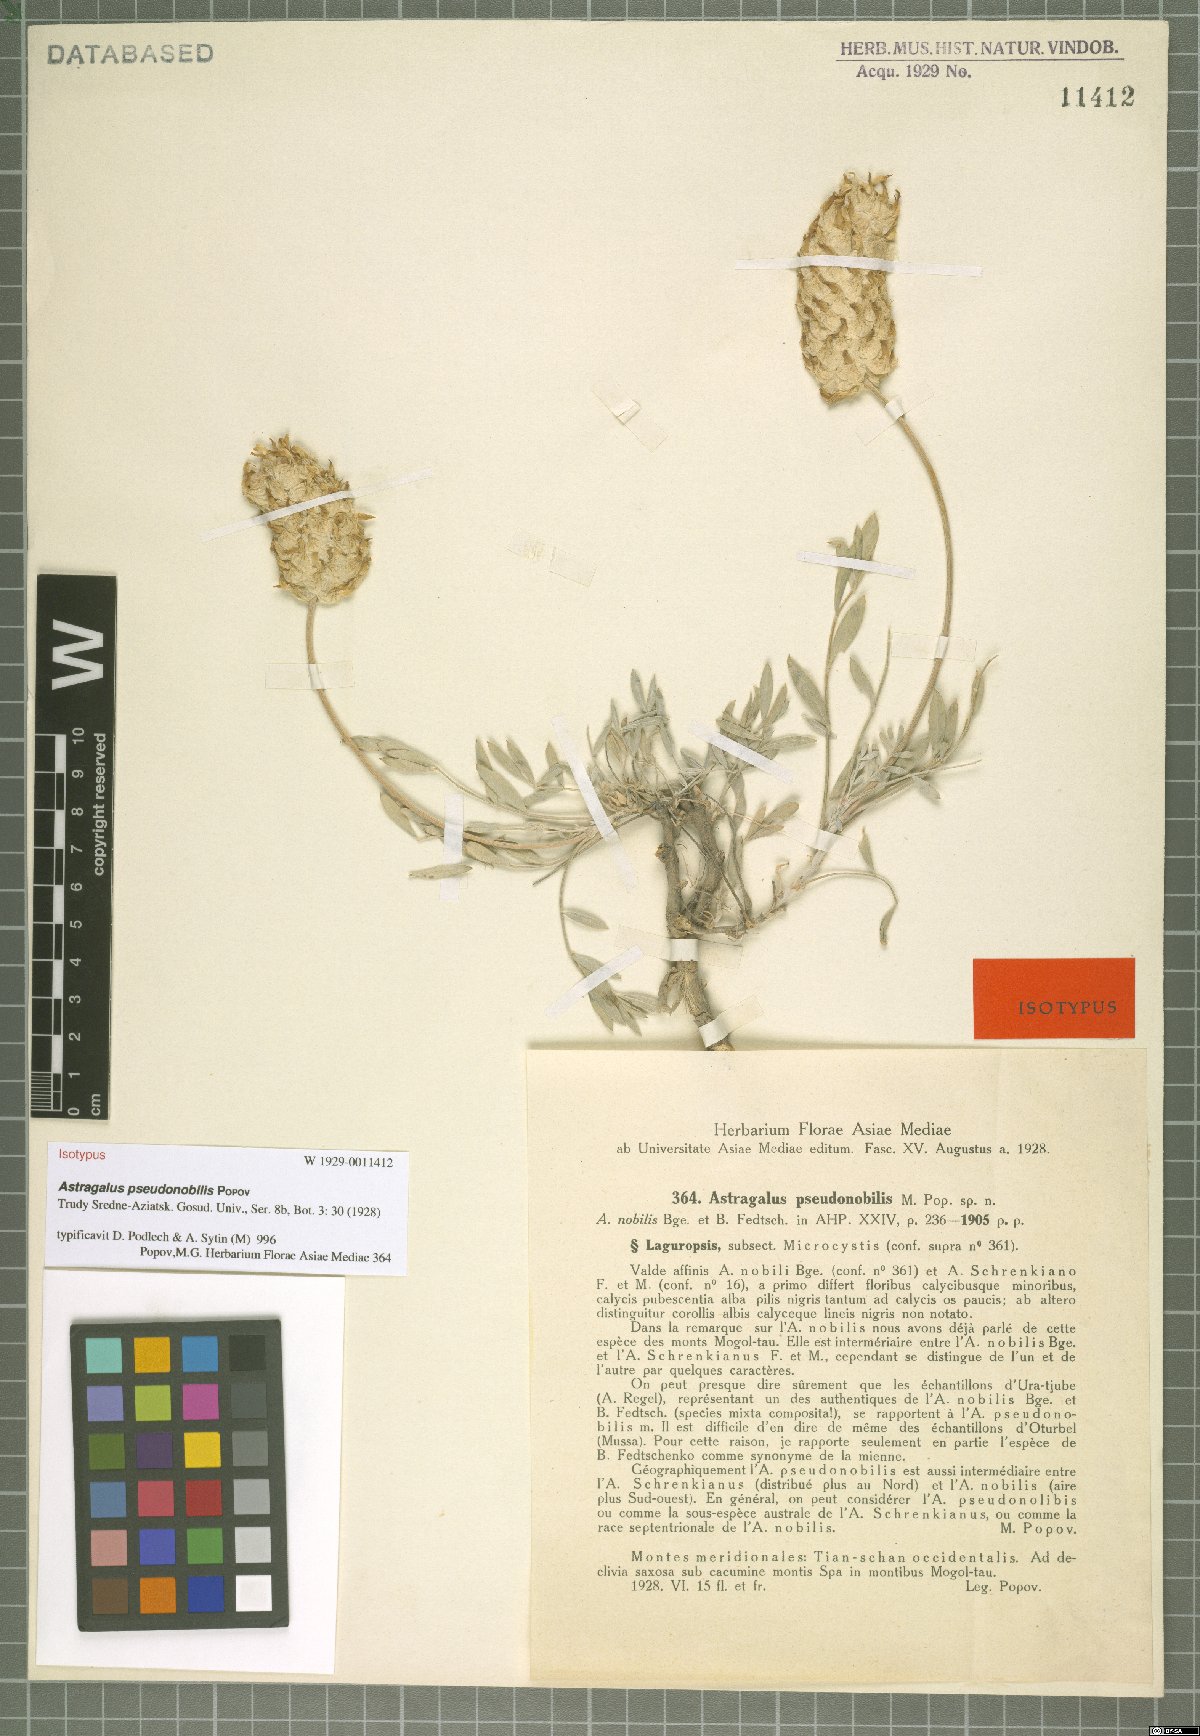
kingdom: Plantae
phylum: Tracheophyta
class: Magnoliopsida
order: Fabales
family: Fabaceae
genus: Astragalus
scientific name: Astragalus pseudonobilis
